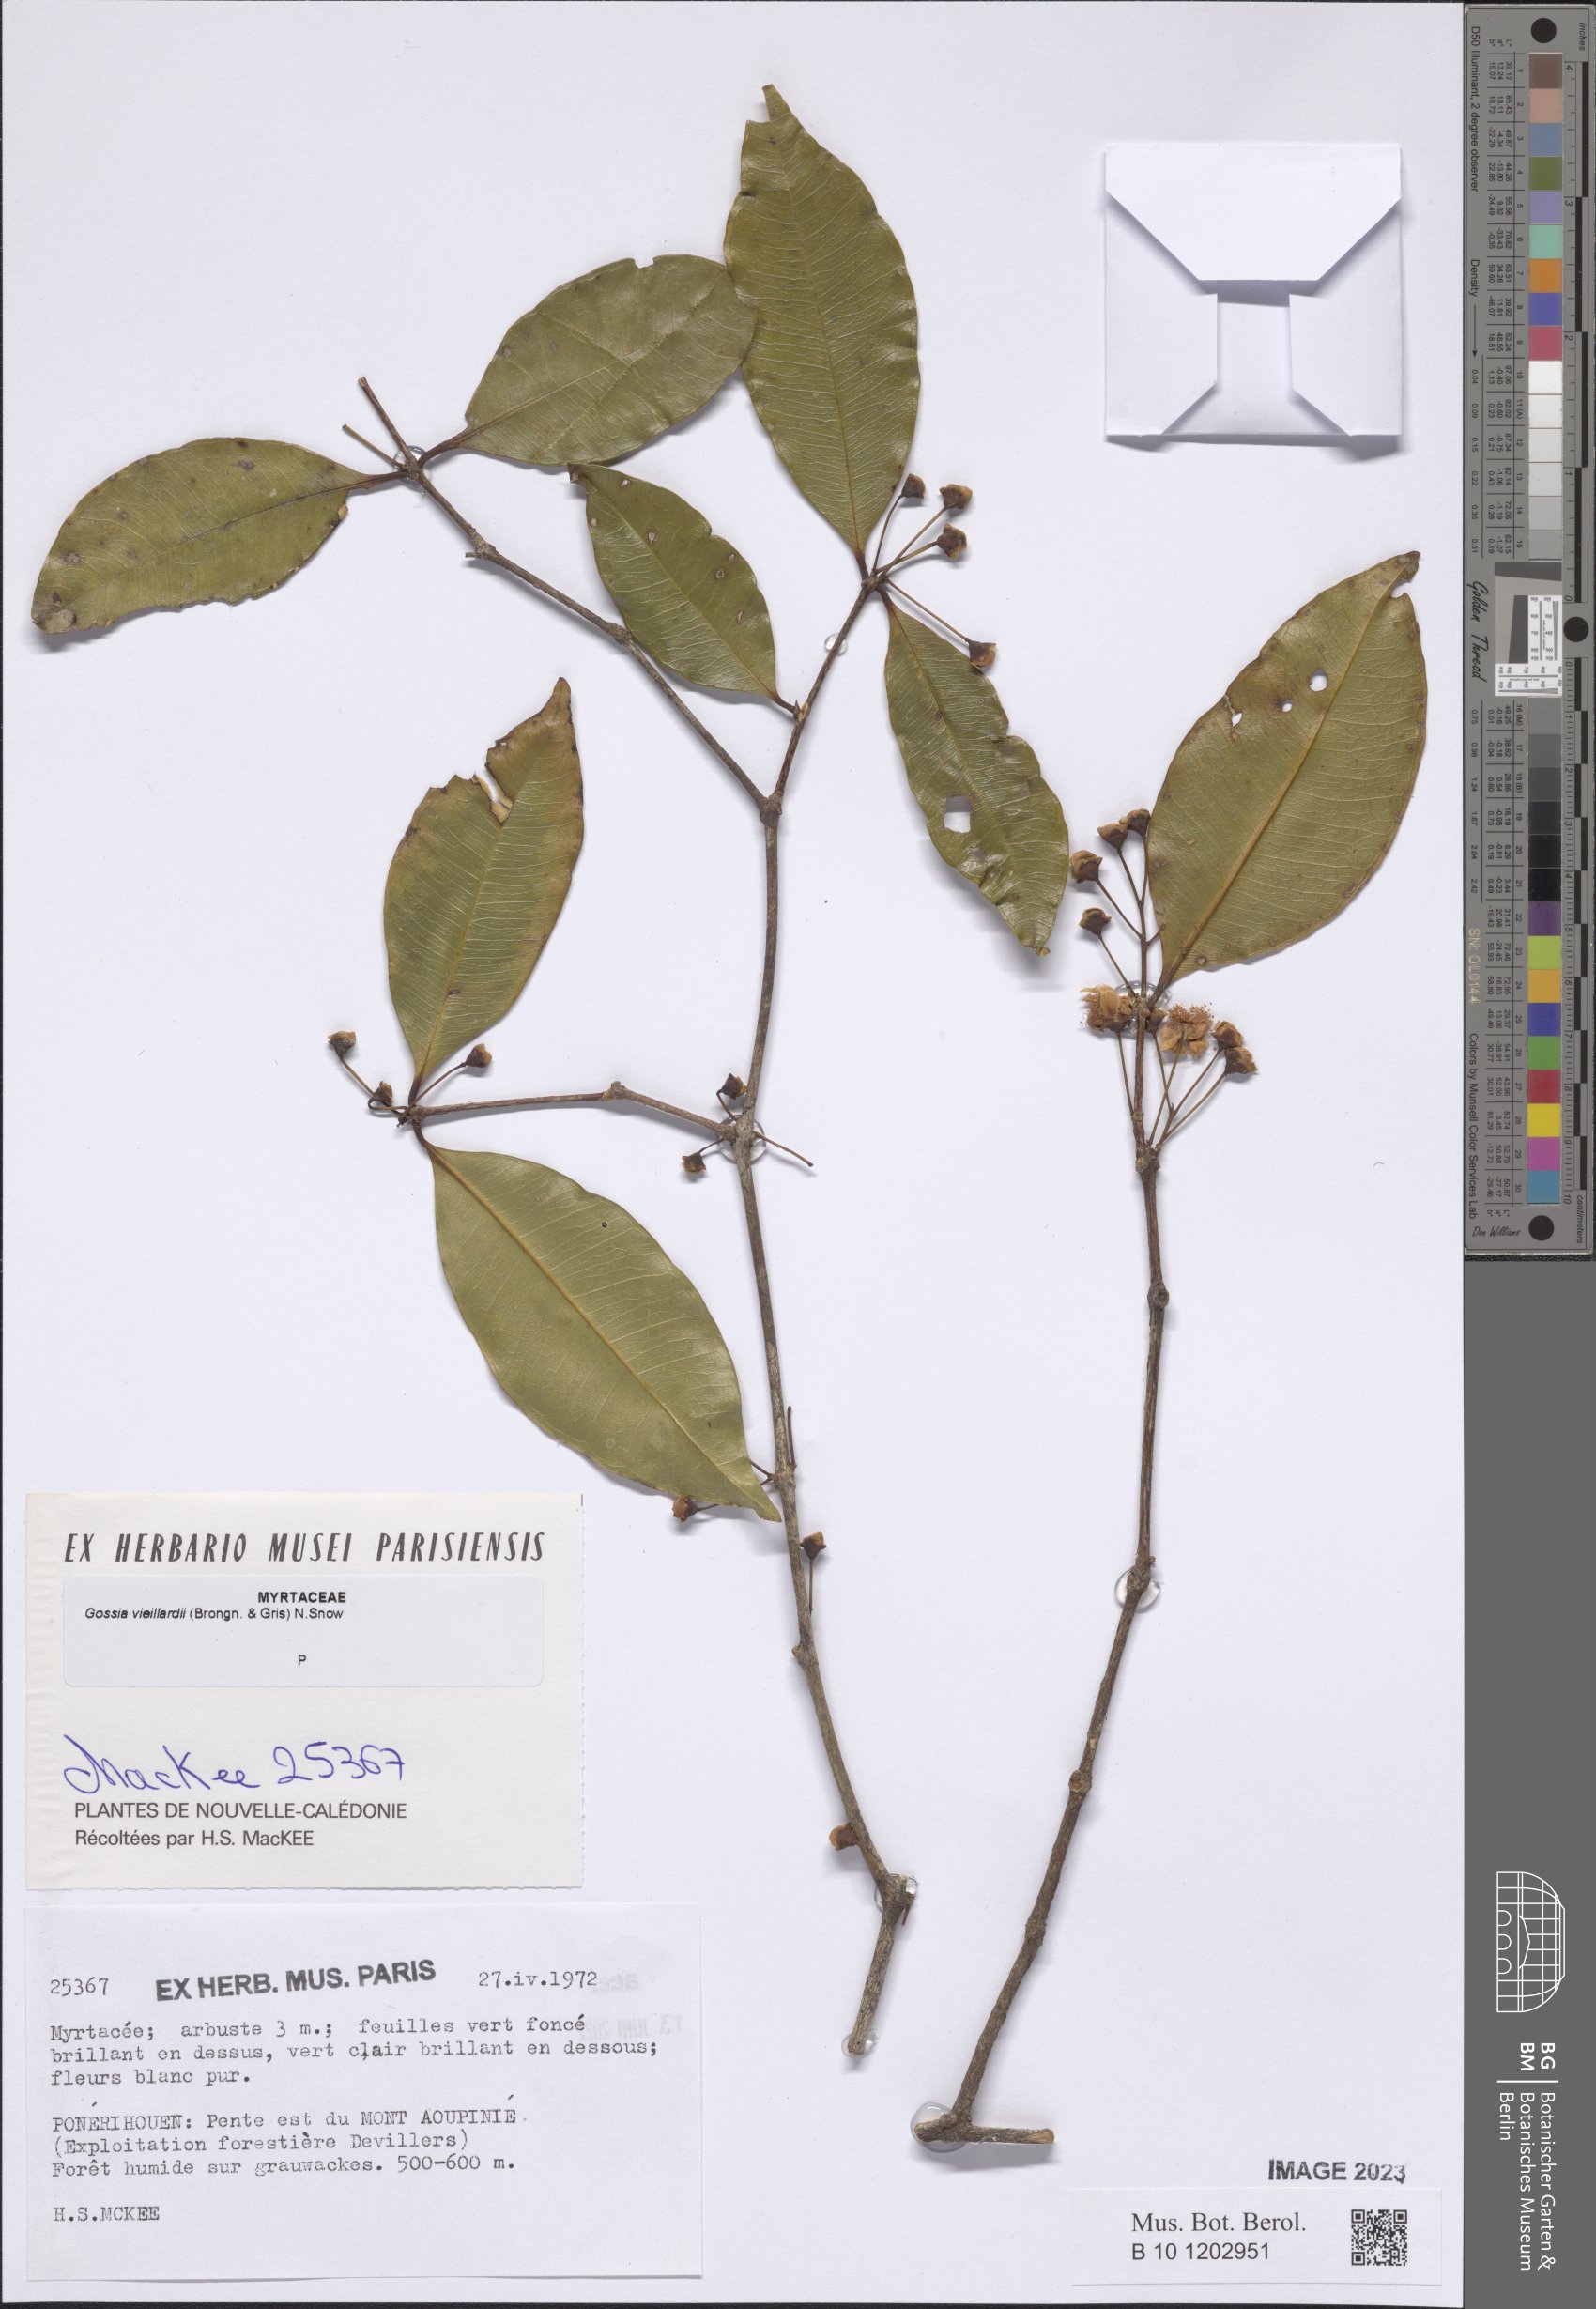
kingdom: Plantae
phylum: Tracheophyta
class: Magnoliopsida
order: Myrtales
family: Myrtaceae
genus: Gossia
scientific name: Gossia vieillardii
